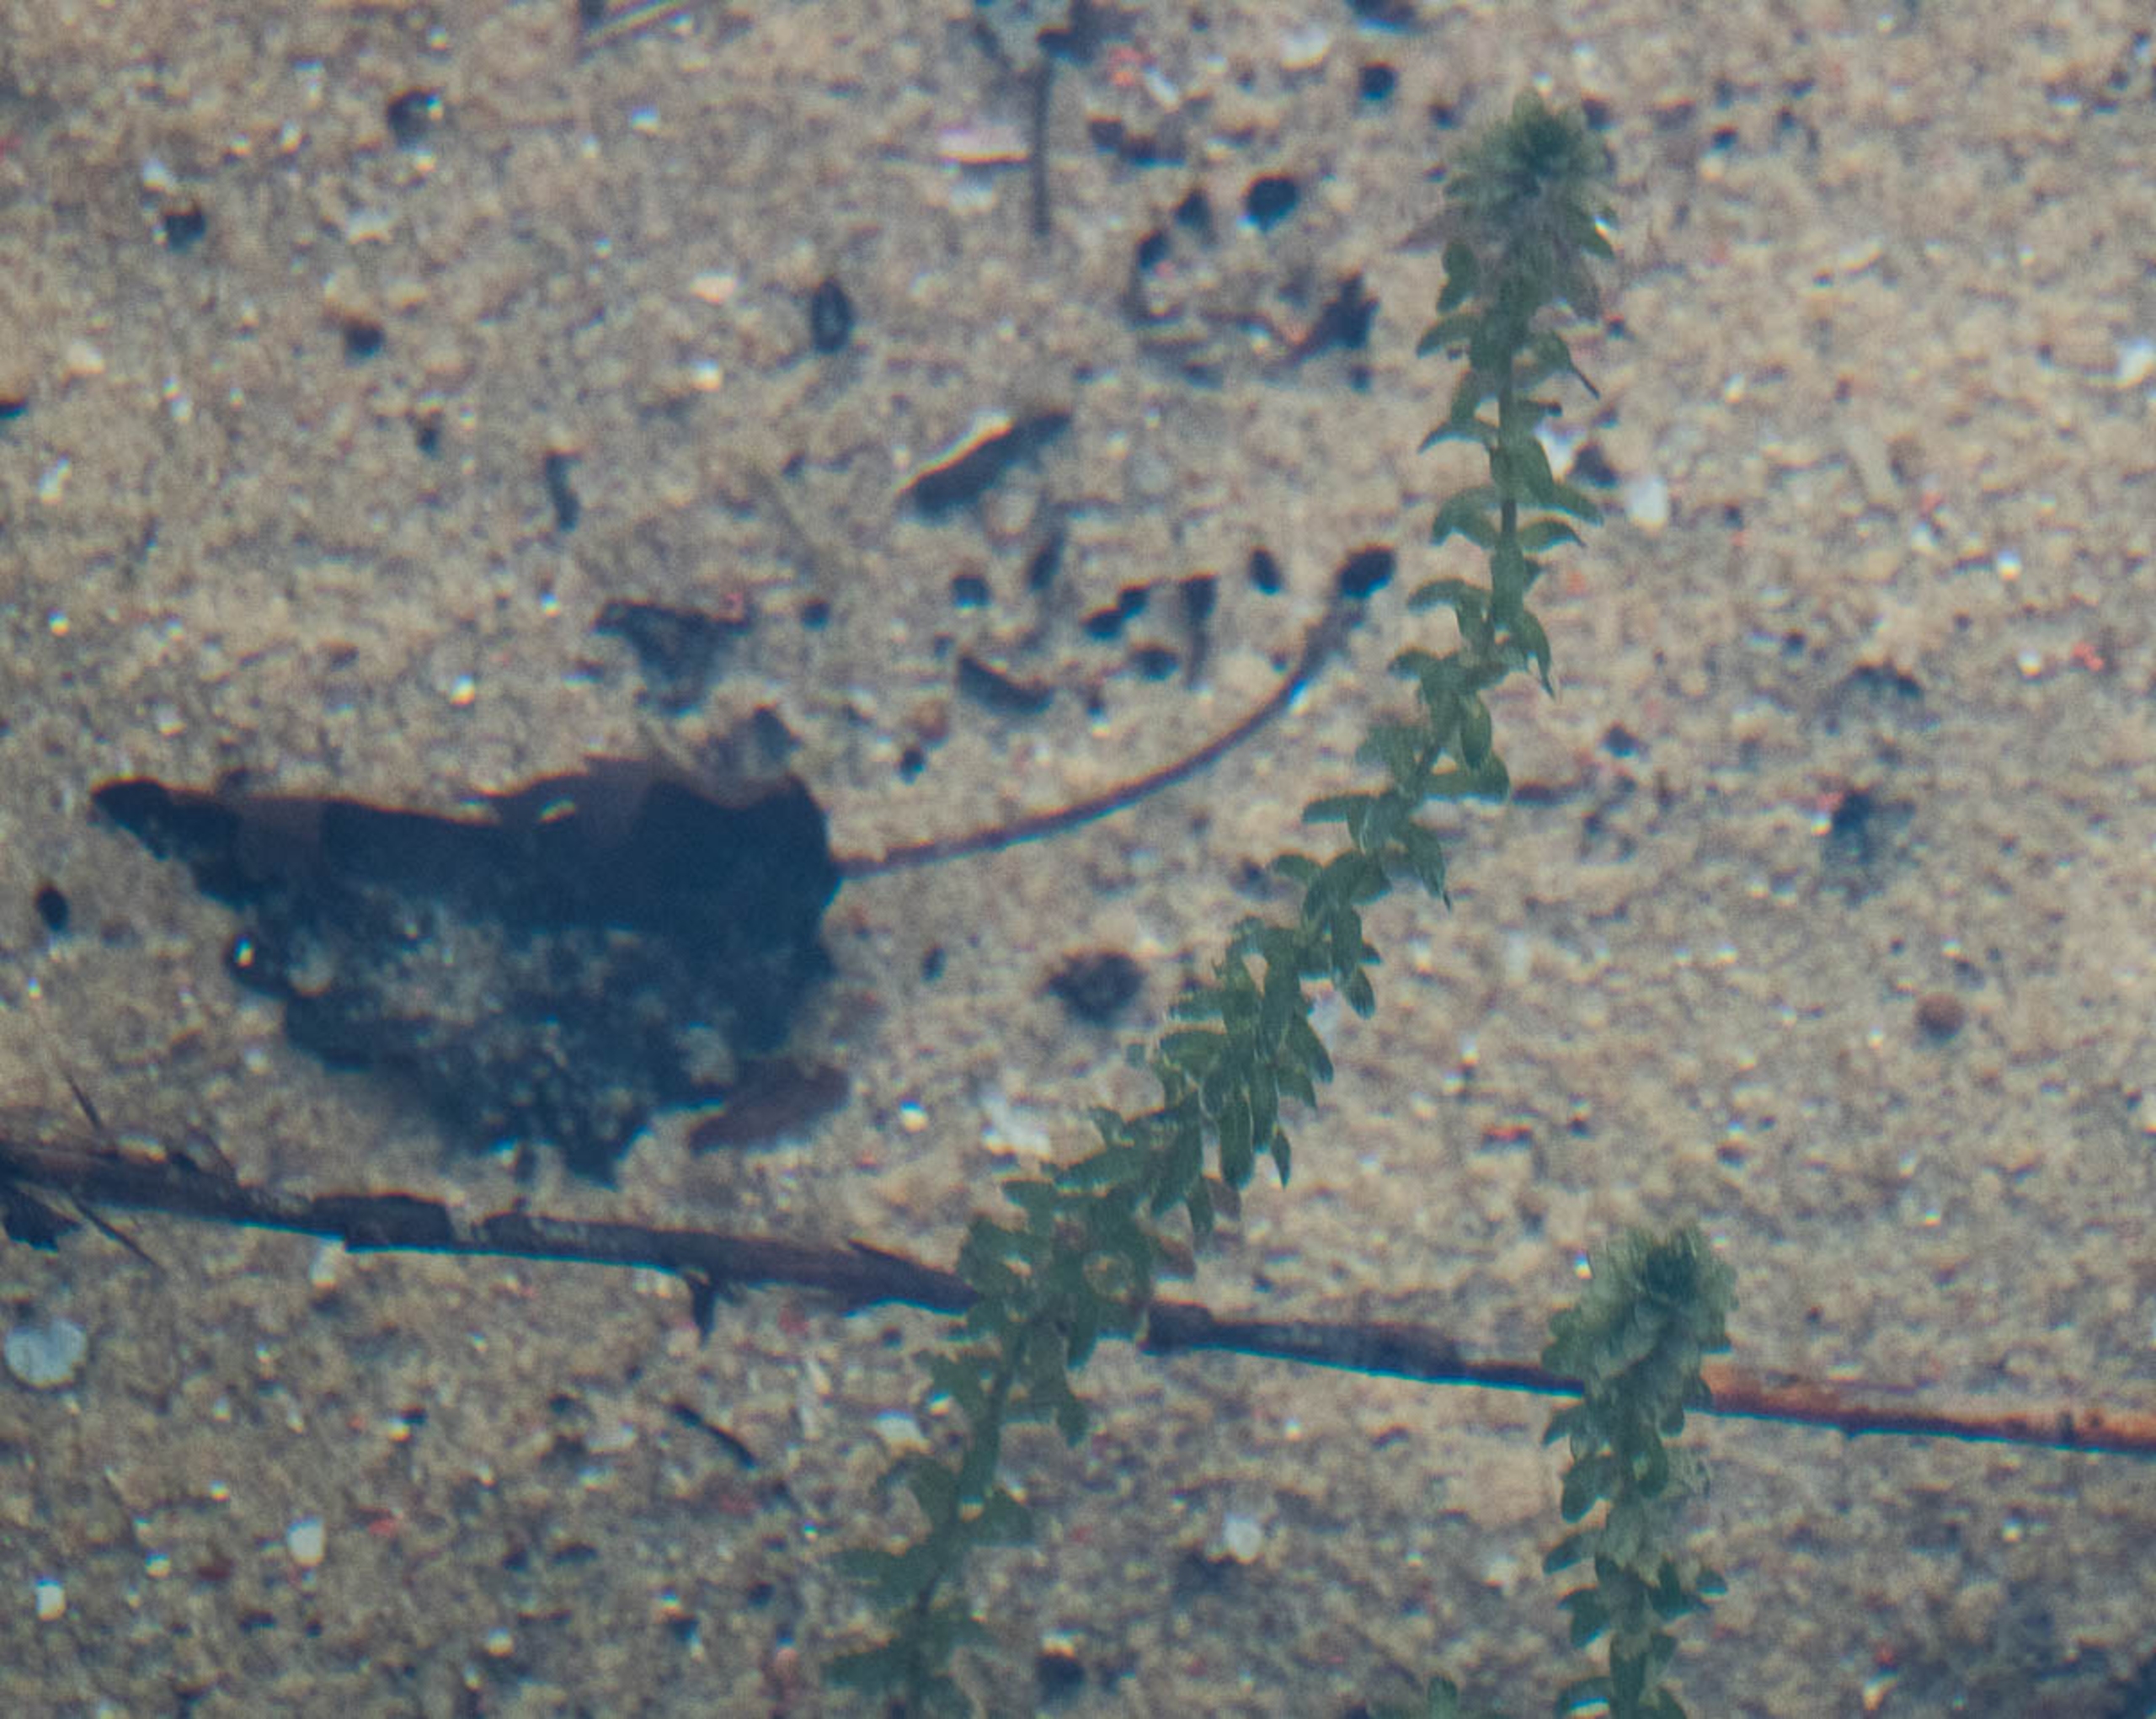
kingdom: Plantae
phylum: Tracheophyta
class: Liliopsida
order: Alismatales
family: Hydrocharitaceae
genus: Elodea
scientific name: Elodea canadensis
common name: Vandpest
